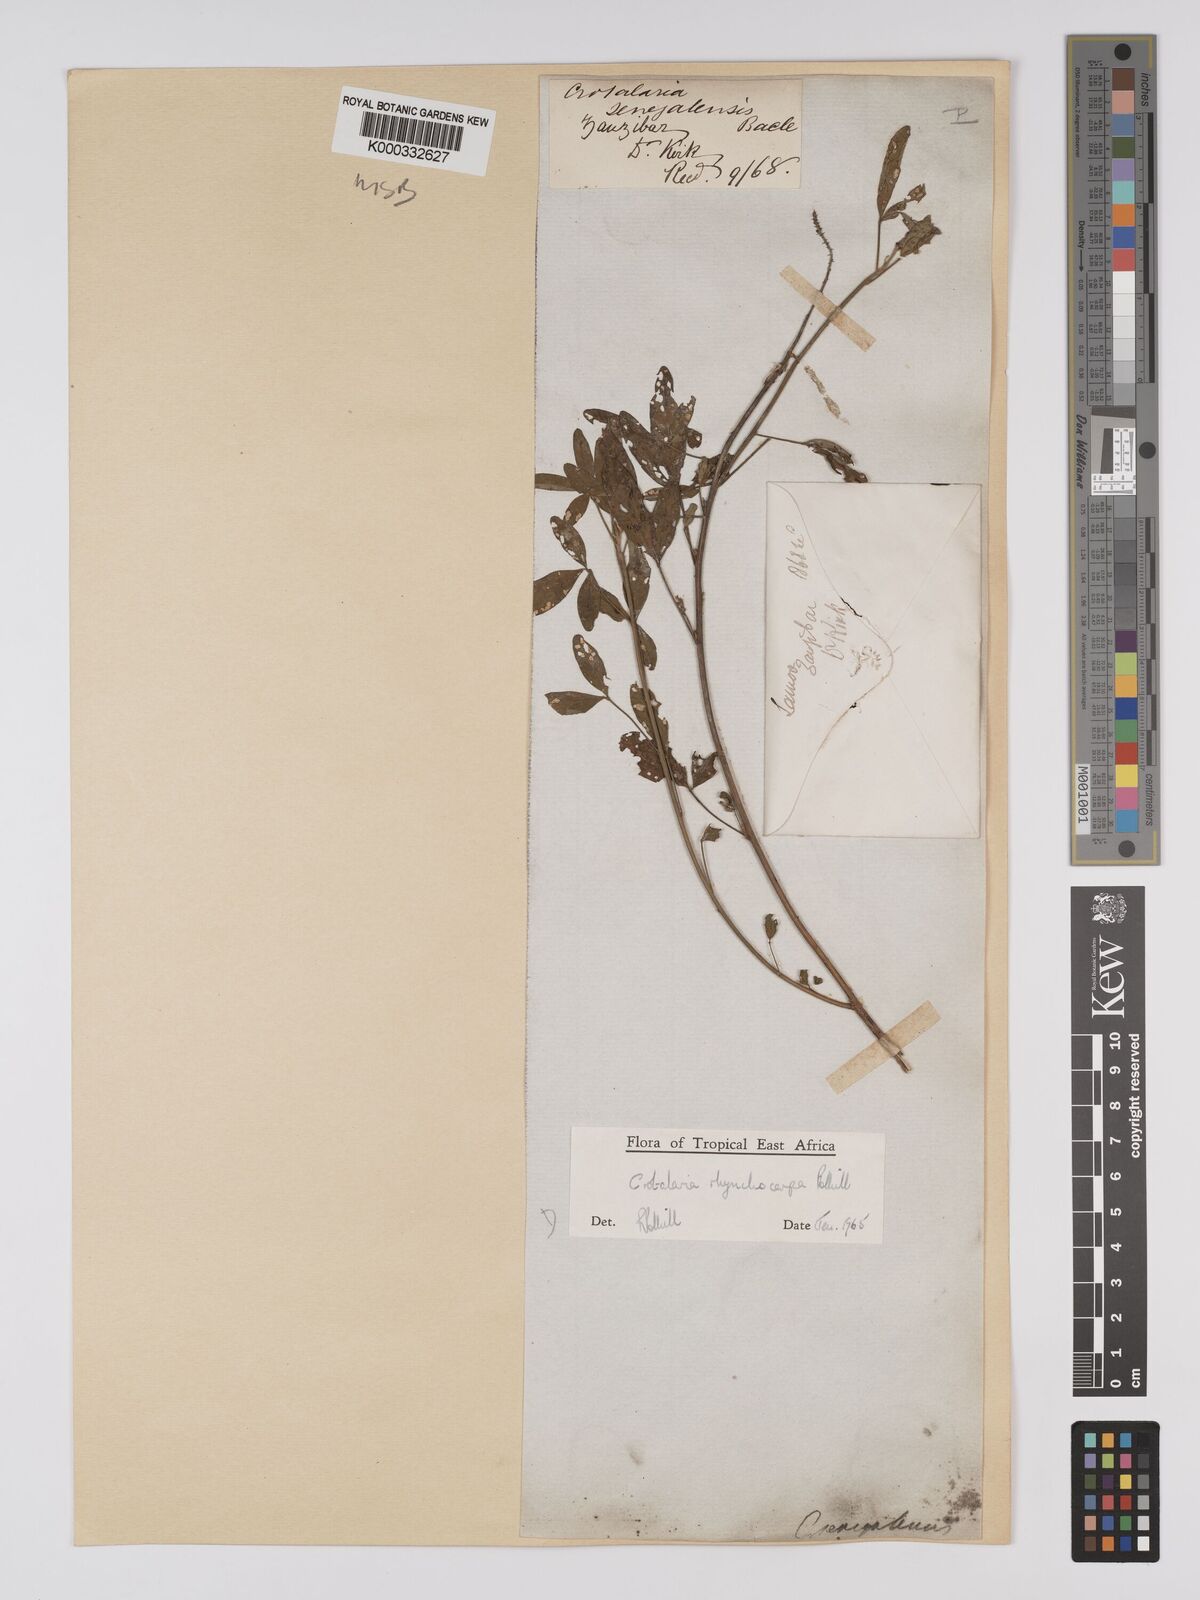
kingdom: Plantae
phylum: Tracheophyta
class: Magnoliopsida
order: Fabales
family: Fabaceae
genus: Crotalaria
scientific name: Crotalaria rhynchocarpa
